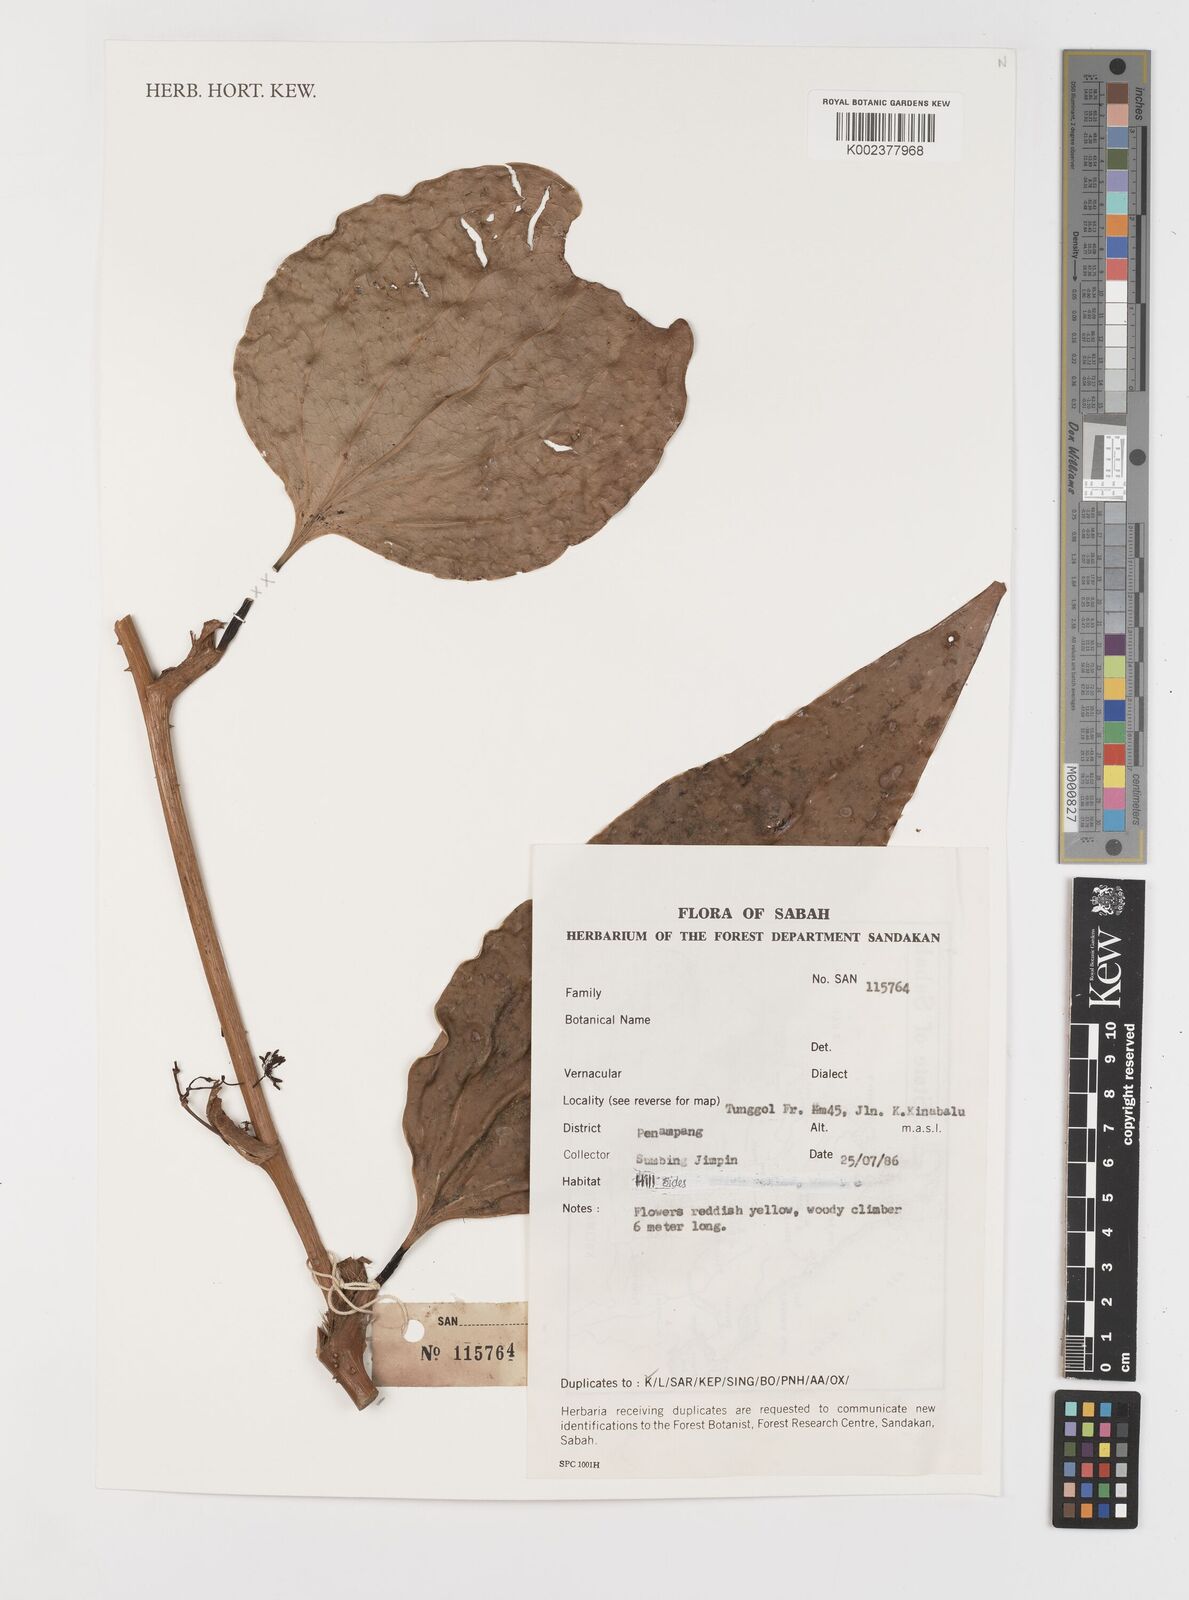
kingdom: Plantae
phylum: Tracheophyta
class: Liliopsida
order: Liliales
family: Smilacaceae
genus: Smilax
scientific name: Smilax
